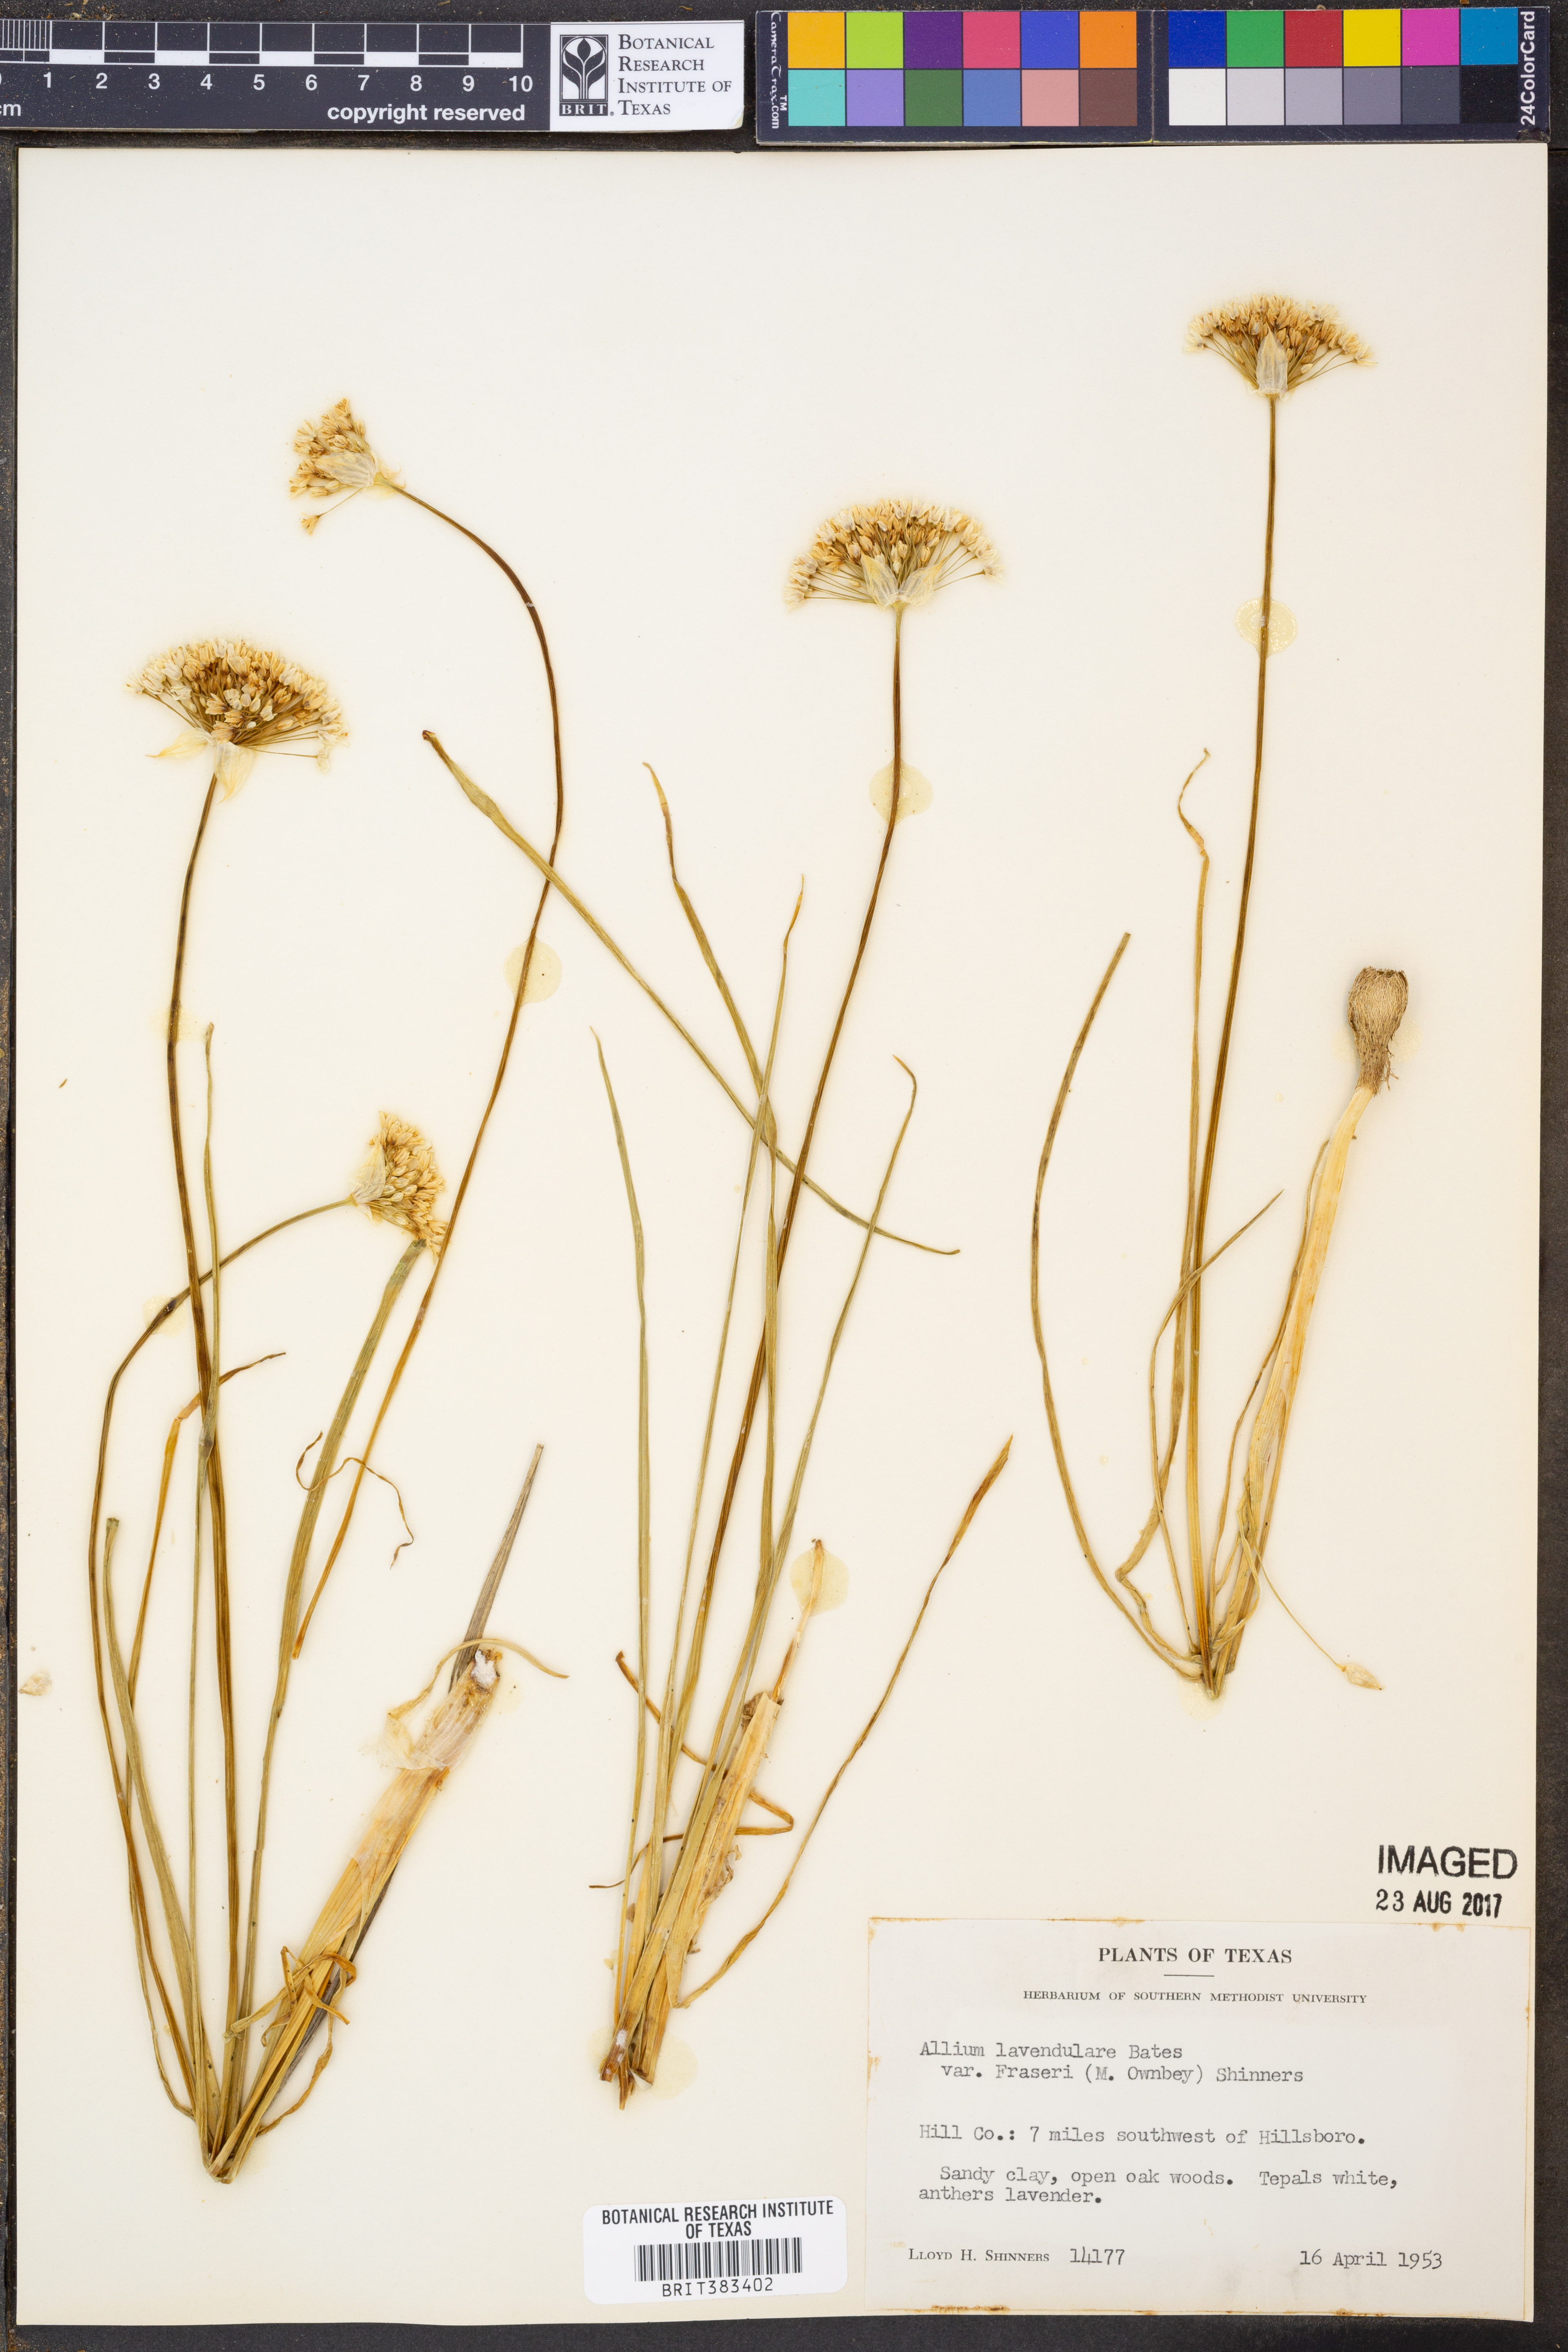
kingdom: Plantae
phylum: Tracheophyta
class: Liliopsida
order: Asparagales
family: Amaryllidaceae
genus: Allium
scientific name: Allium fraseri
